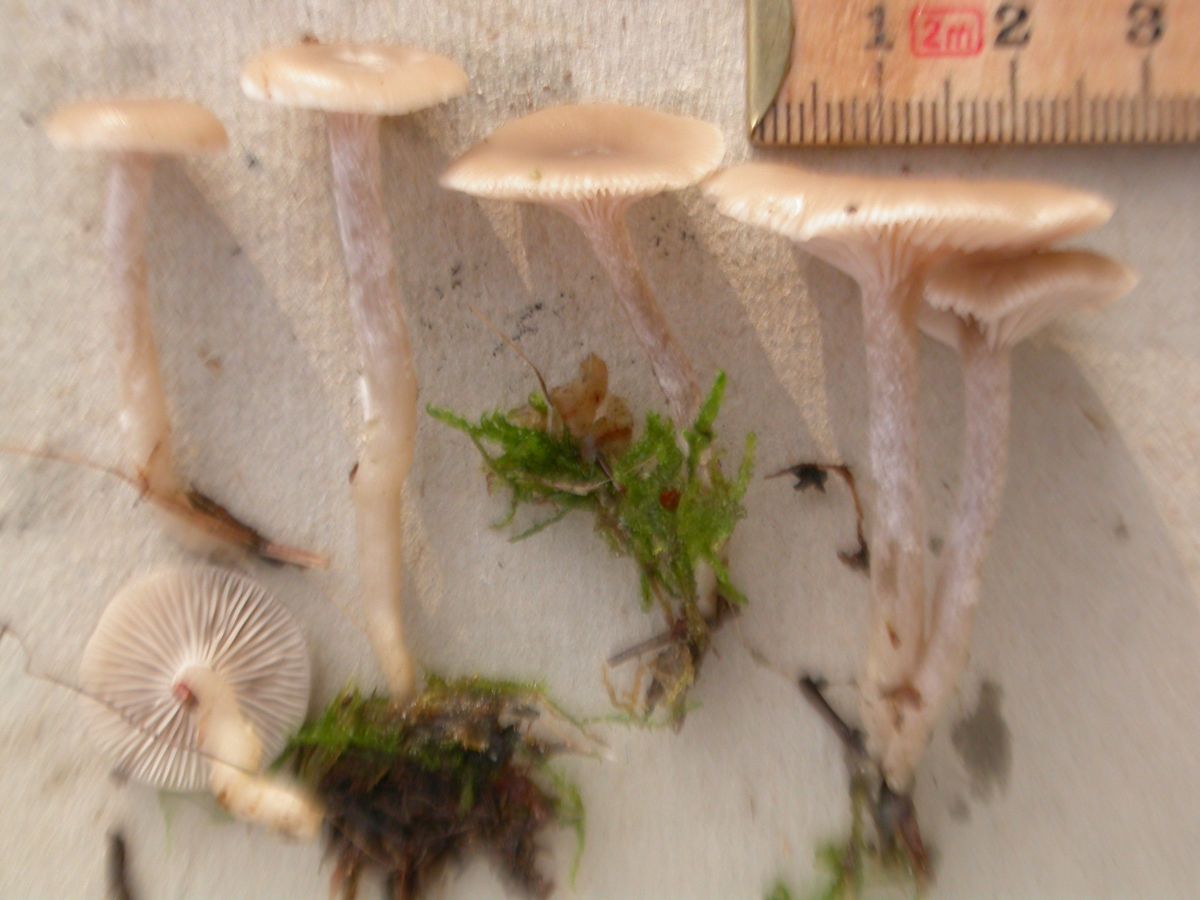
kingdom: Fungi
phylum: Basidiomycota
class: Agaricomycetes
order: Agaricales
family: Tricholomataceae
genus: Clitocybe
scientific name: Clitocybe vibecina
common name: randstribet tragthat
